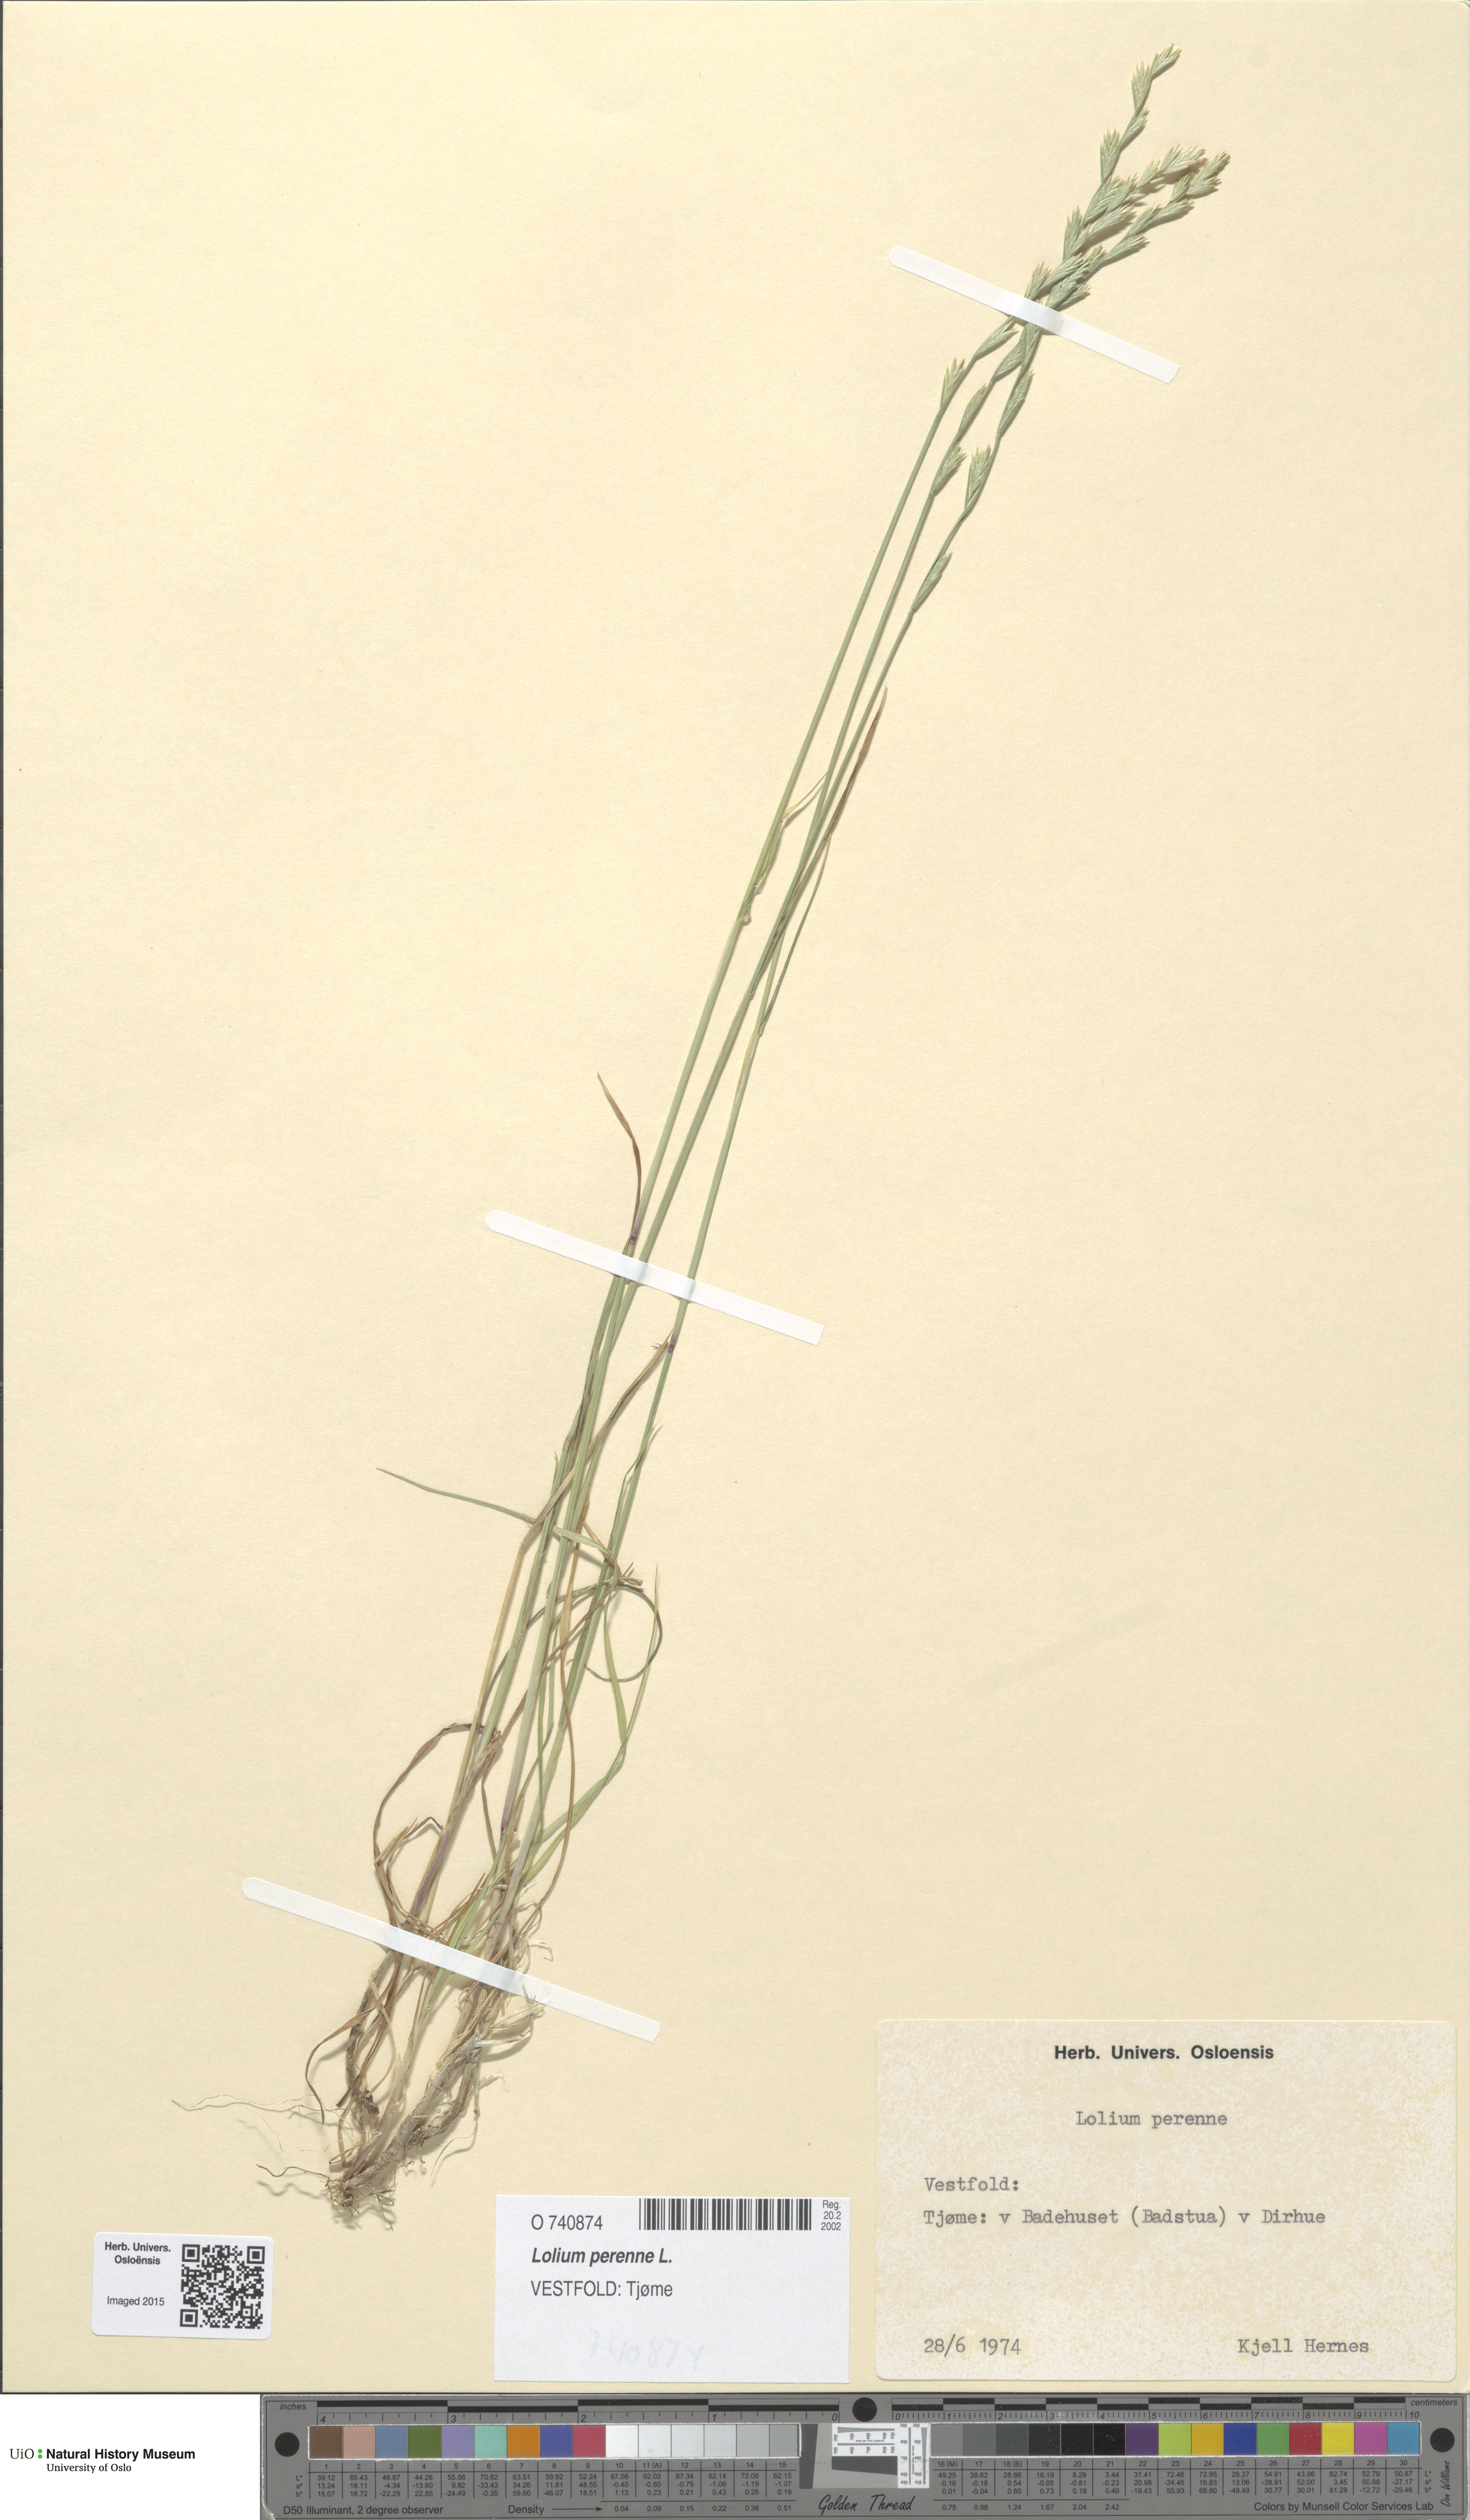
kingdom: Plantae
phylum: Tracheophyta
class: Liliopsida
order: Poales
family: Poaceae
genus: Lolium
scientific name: Lolium perenne
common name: Perennial ryegrass
